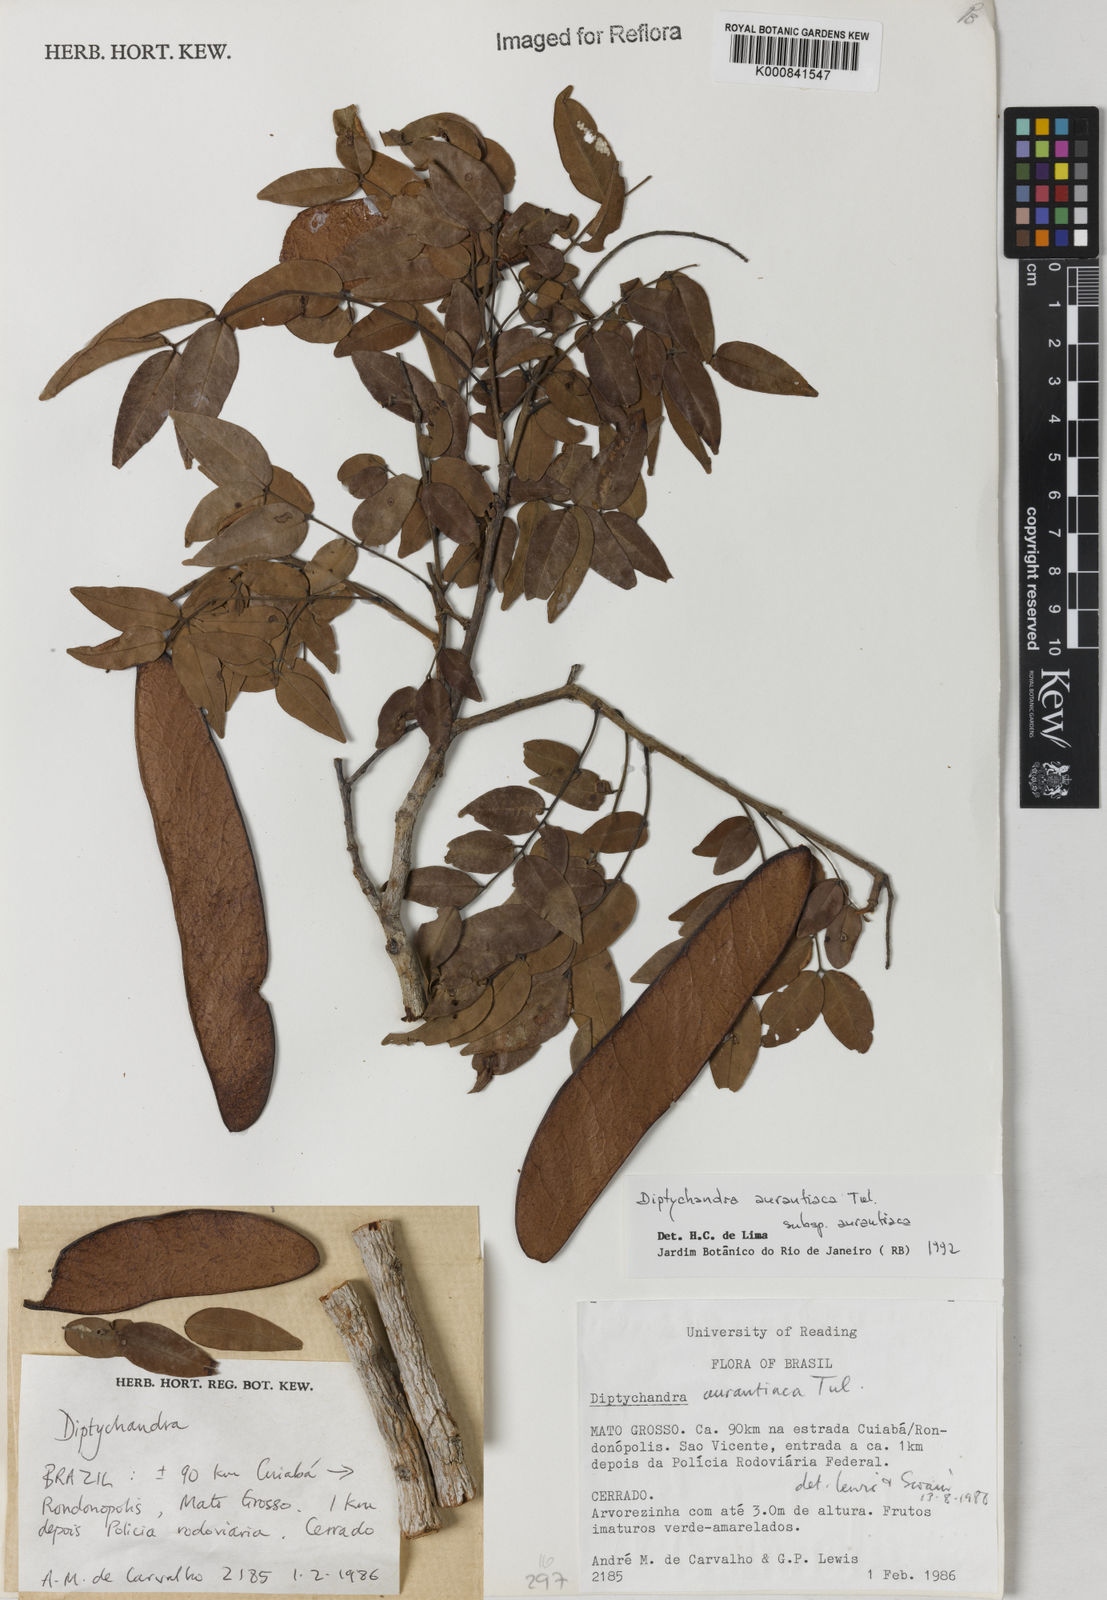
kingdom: Plantae
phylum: Tracheophyta
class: Magnoliopsida
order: Fabales
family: Fabaceae
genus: Diptychandra
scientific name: Diptychandra aurantiaca
